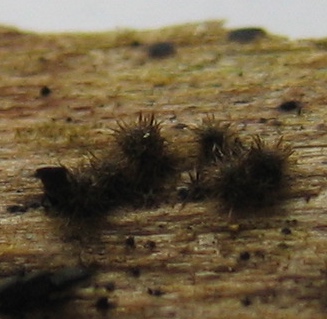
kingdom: Fungi
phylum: Ascomycota
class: Sordariomycetes
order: Sordariales
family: Helminthosphaeriaceae
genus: Echinosphaeria
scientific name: Echinosphaeria
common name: børstekerne
